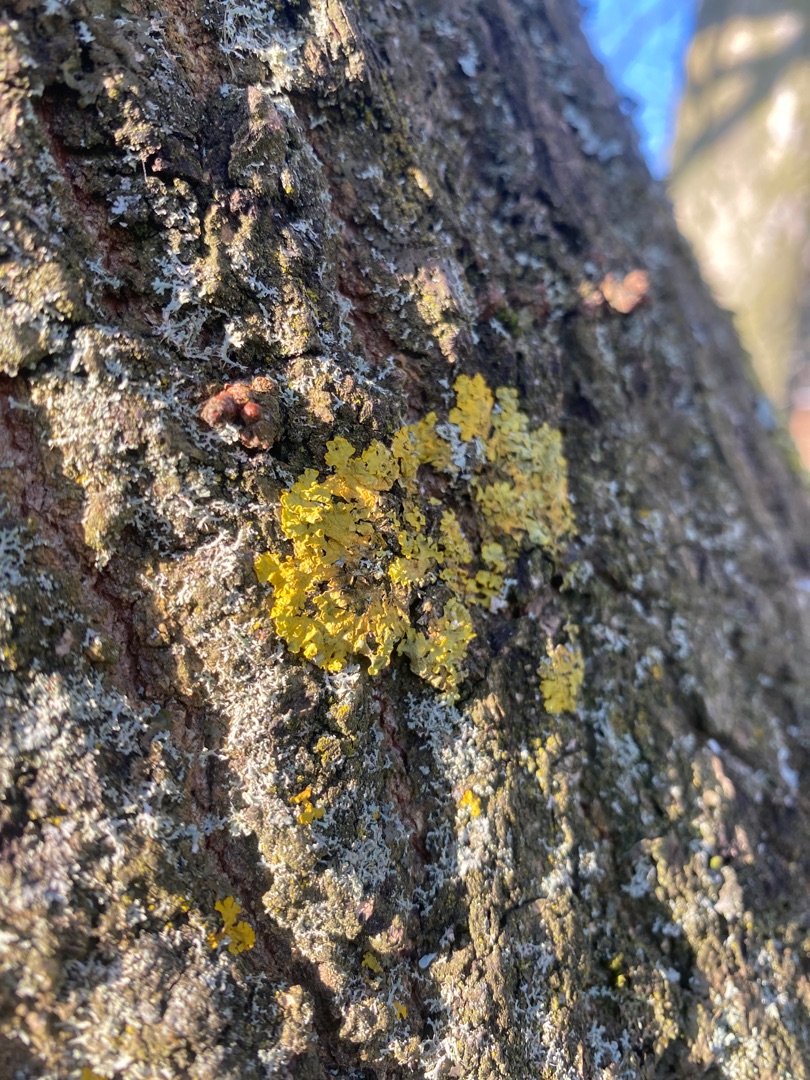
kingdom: Fungi
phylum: Ascomycota
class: Lecanoromycetes
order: Teloschistales
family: Teloschistaceae
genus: Xanthoria
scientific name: Xanthoria parietina
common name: Almindelig væggelav
